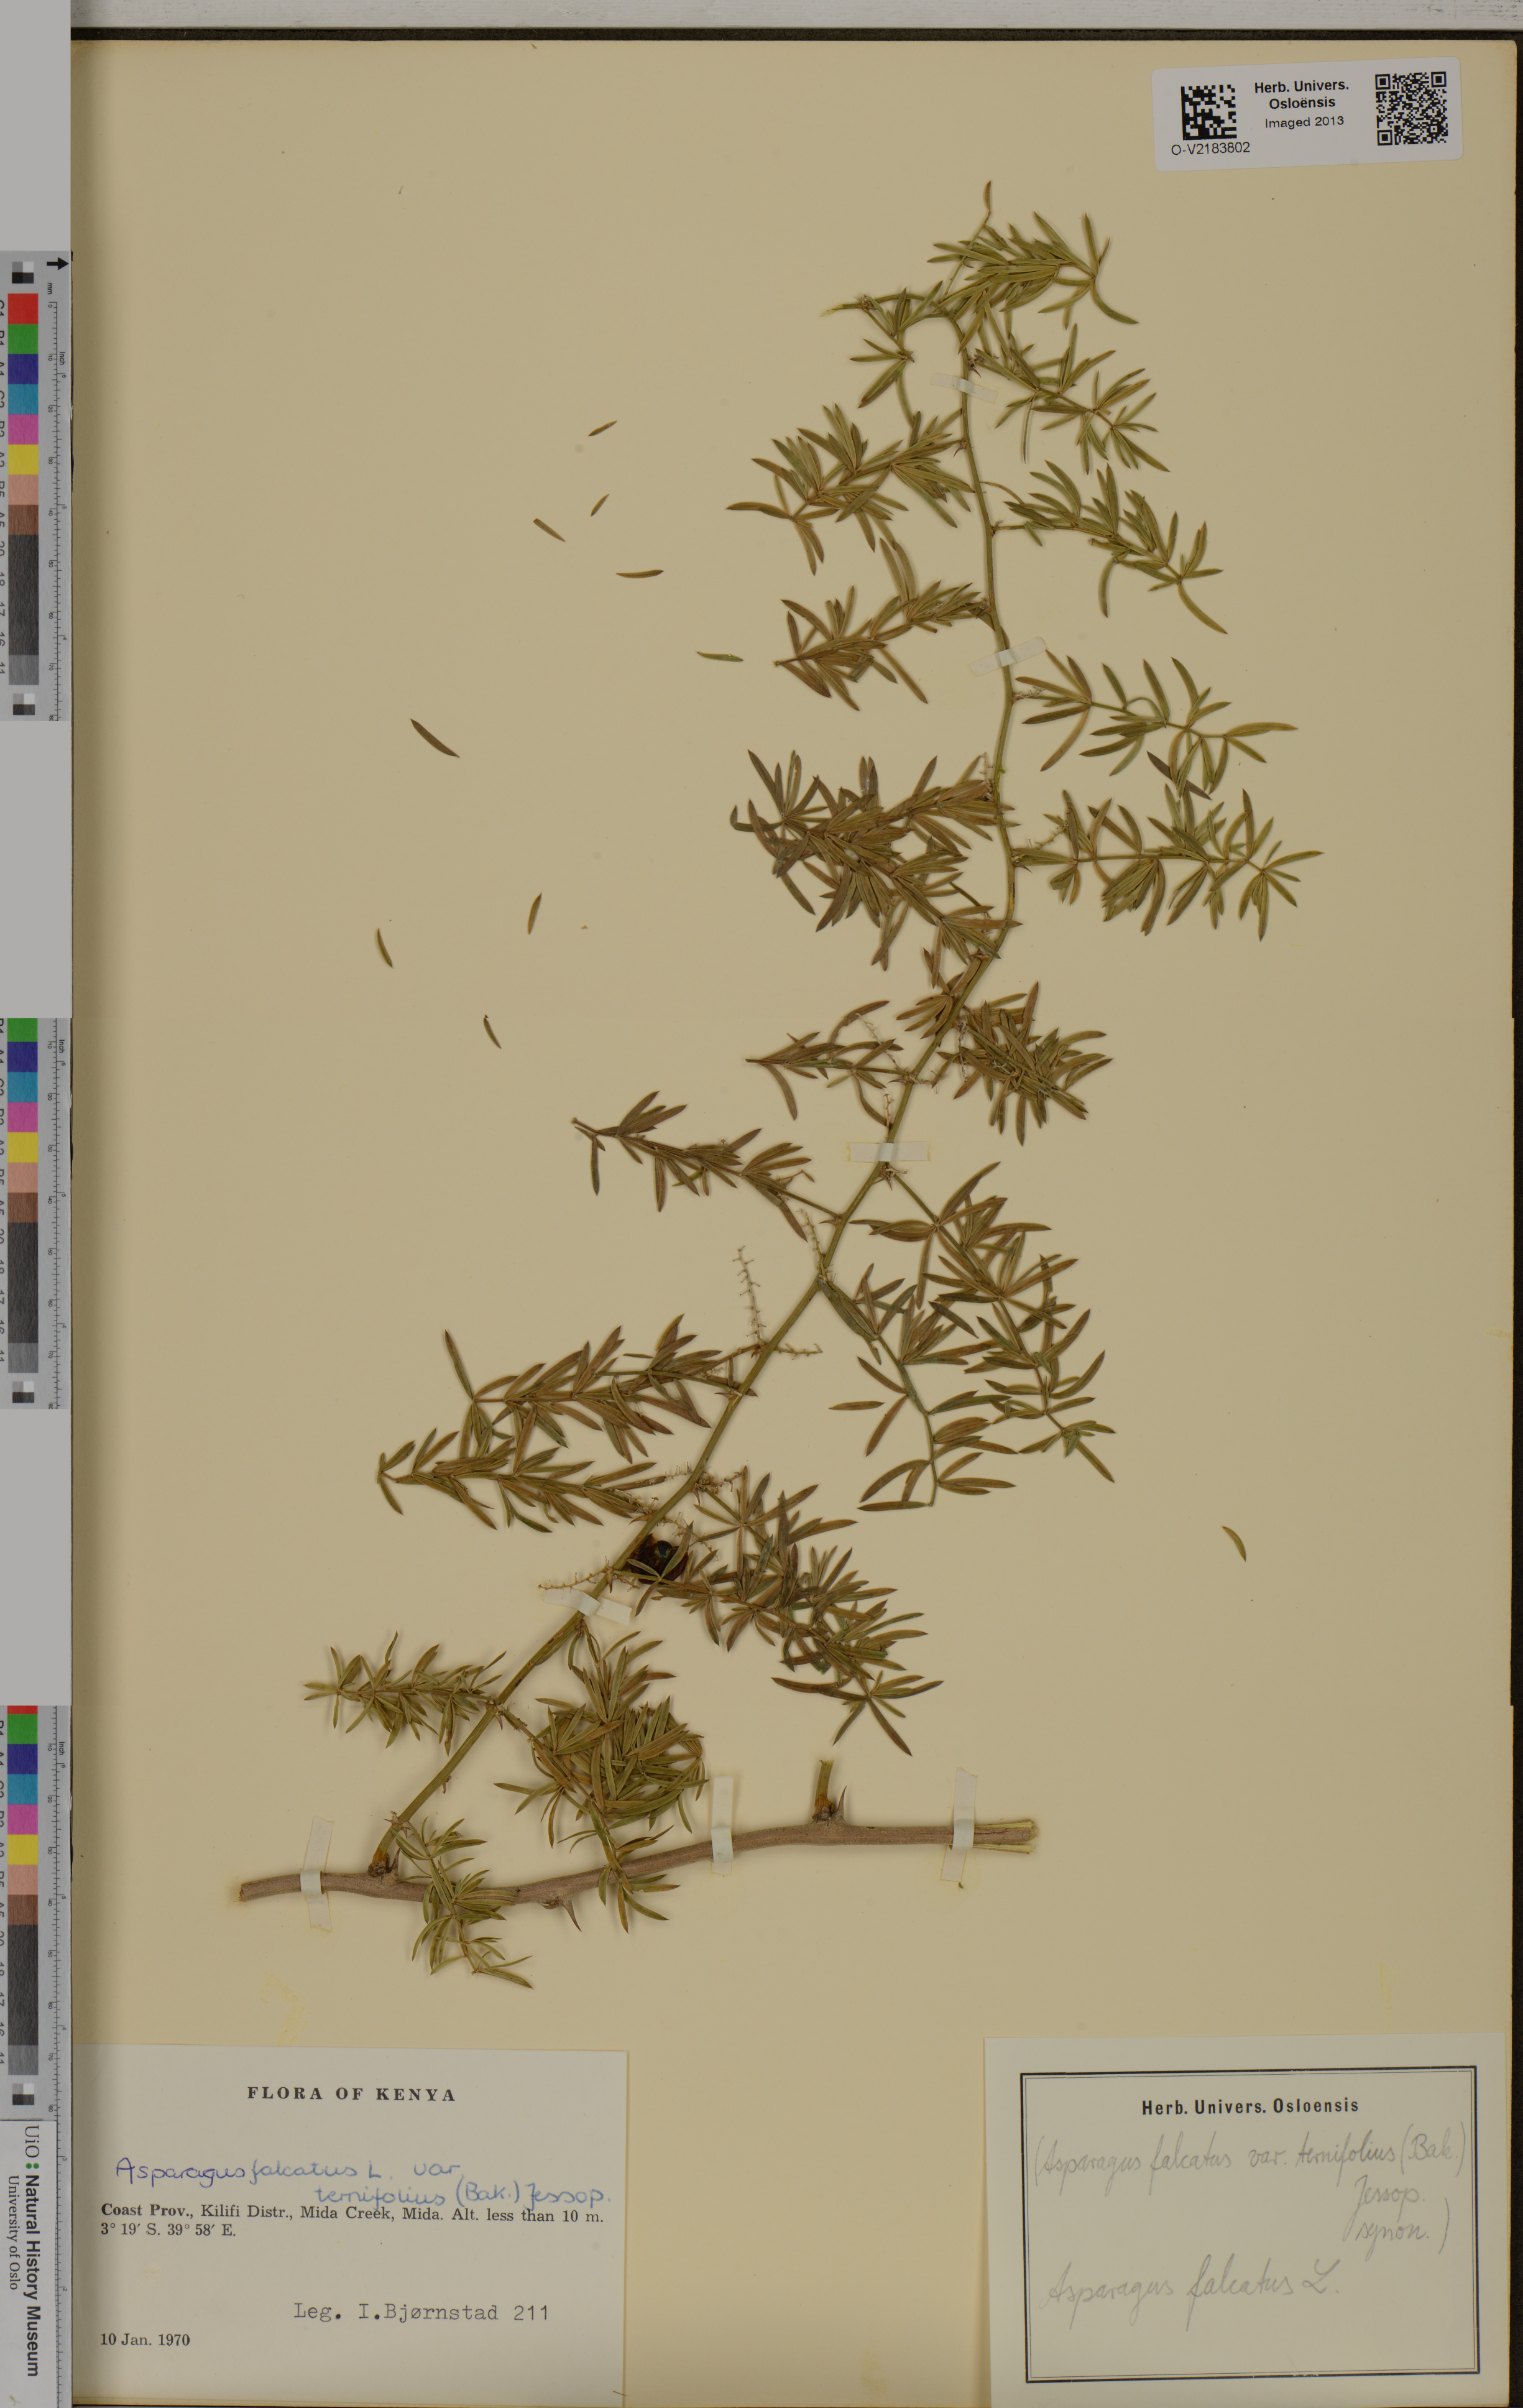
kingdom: Plantae
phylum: Tracheophyta
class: Liliopsida
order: Asparagales
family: Asparagaceae
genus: Asparagus
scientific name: Asparagus falcatus
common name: Asparagus
